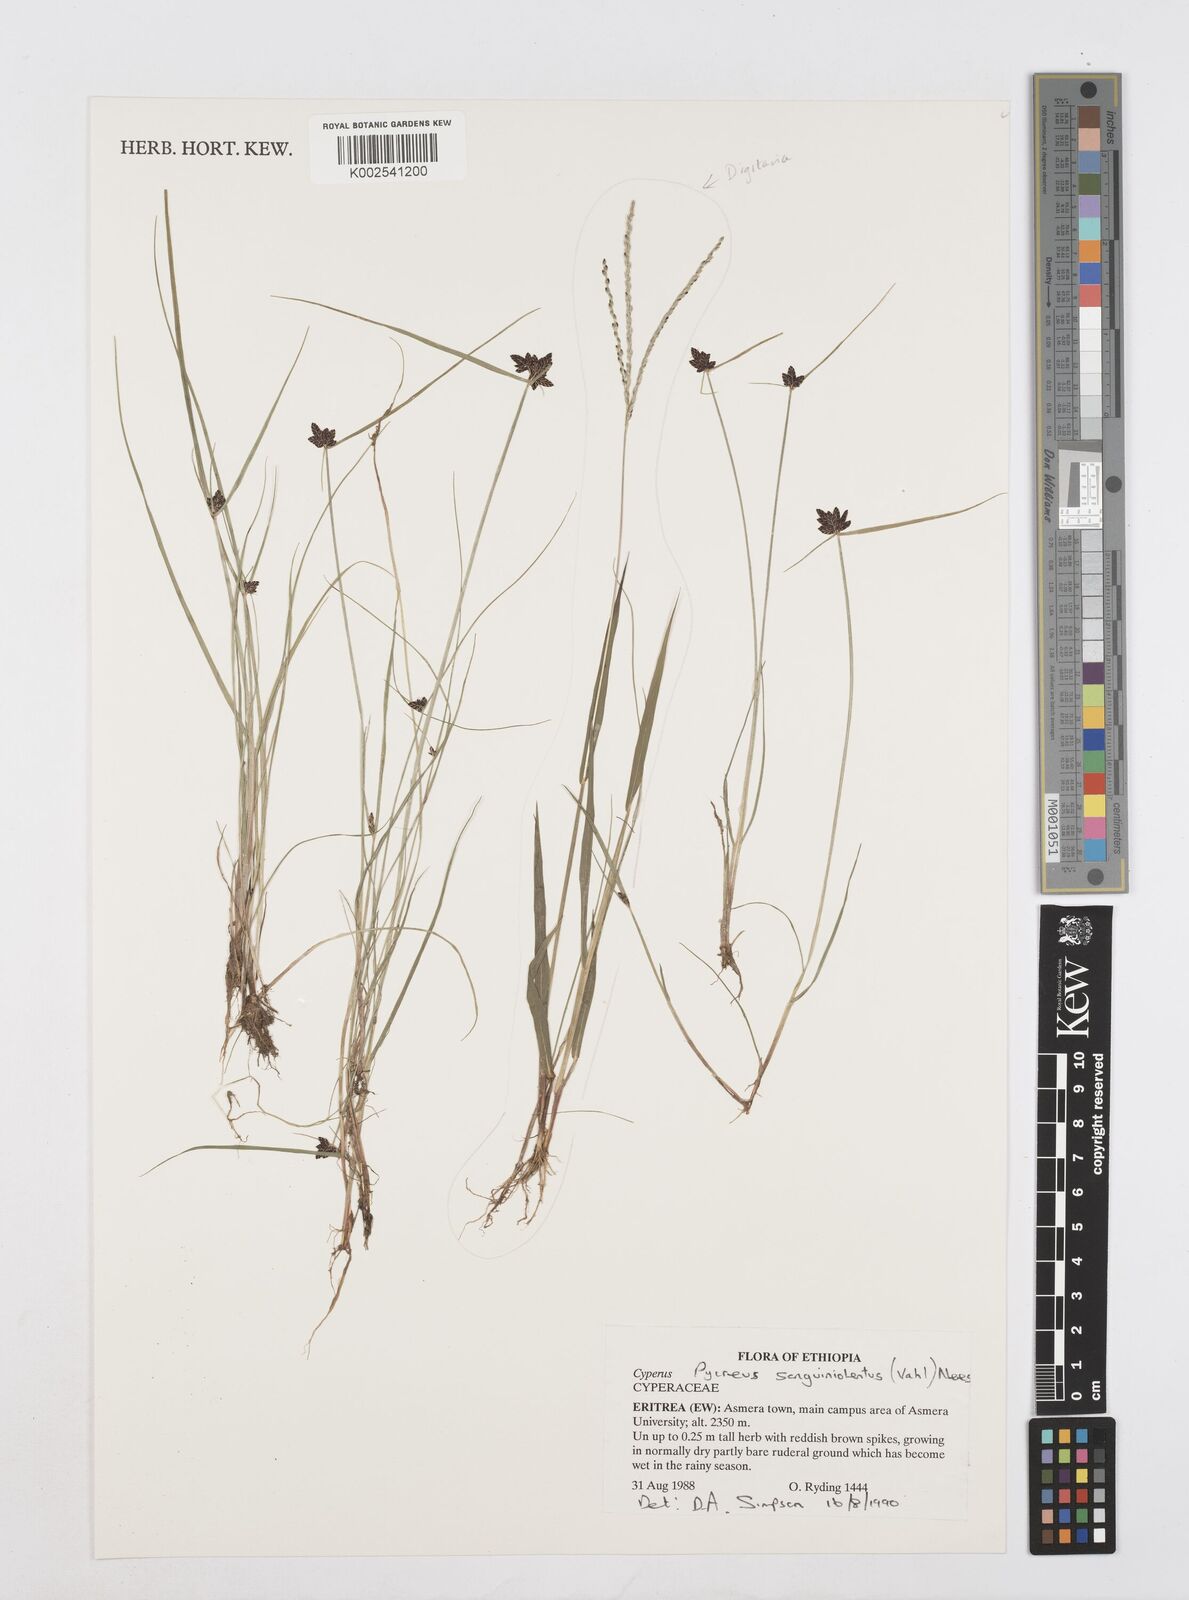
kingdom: Plantae
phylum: Tracheophyta
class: Liliopsida
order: Poales
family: Cyperaceae
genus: Cyperus
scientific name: Cyperus sanguinolentus
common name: Purpleglume flatsedge
